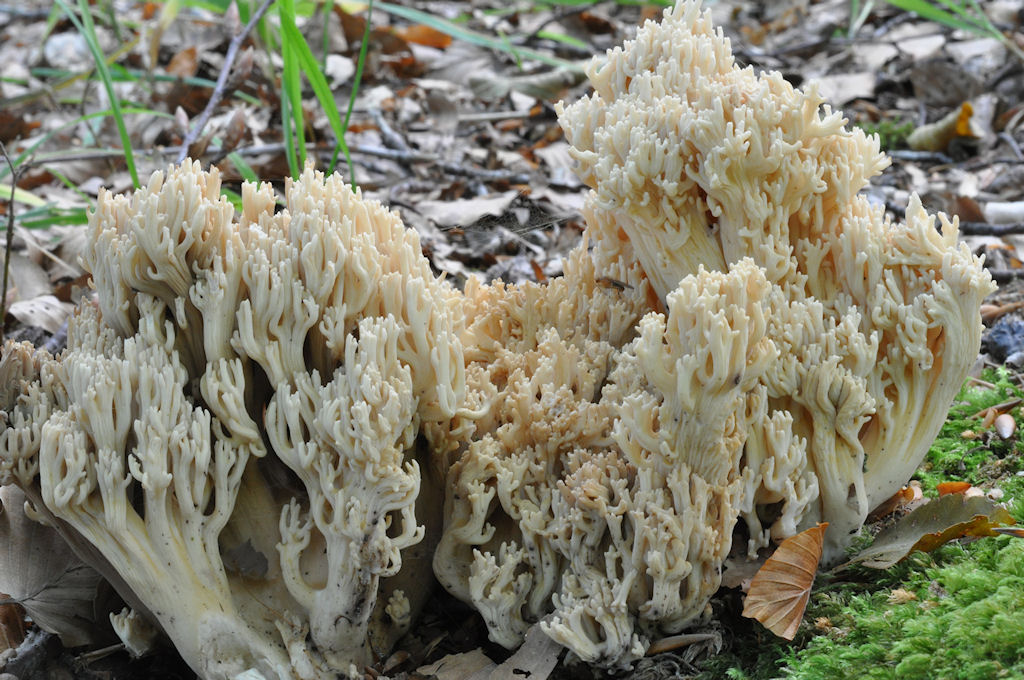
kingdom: Fungi
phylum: Basidiomycota
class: Agaricomycetes
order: Gomphales
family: Gomphaceae
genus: Ramaria
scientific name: Ramaria
